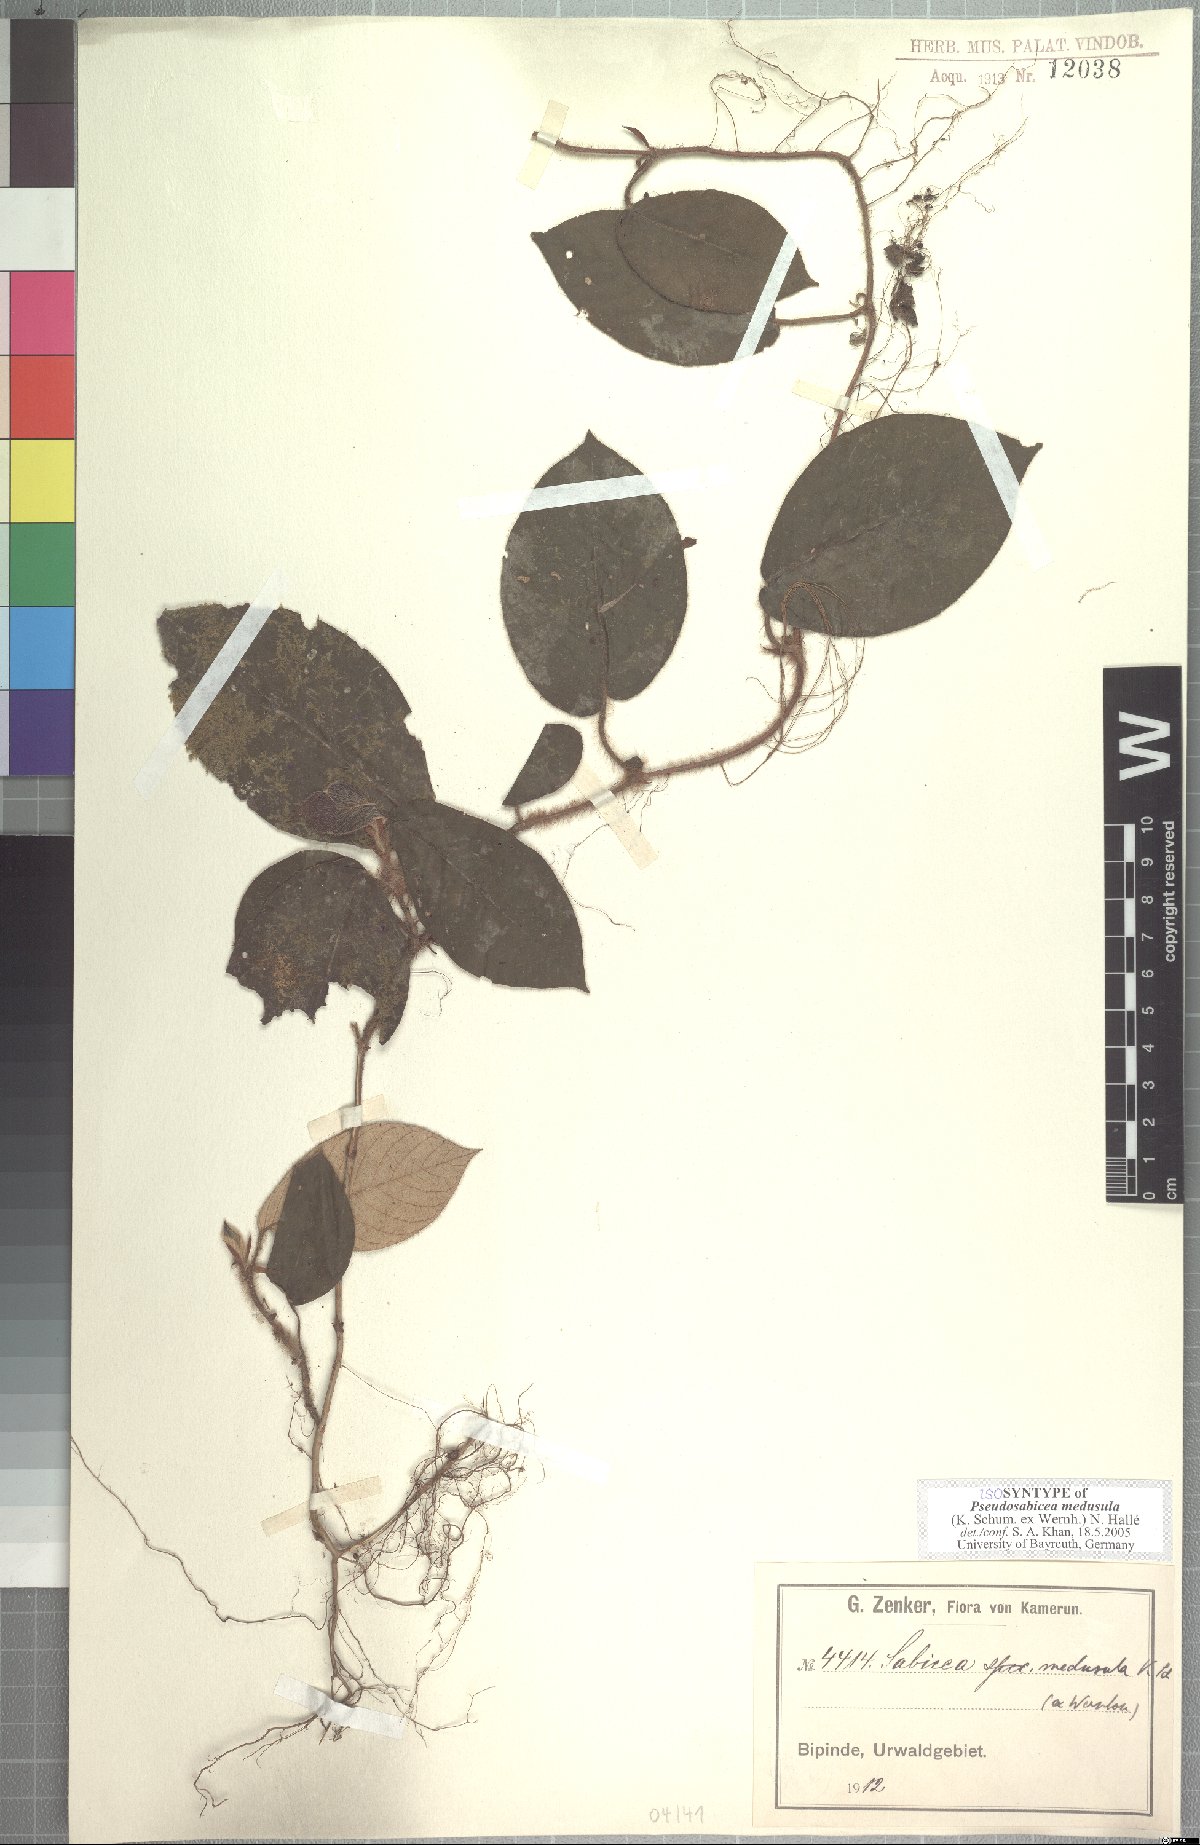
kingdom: Plantae
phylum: Tracheophyta
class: Magnoliopsida
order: Gentianales
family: Rubiaceae
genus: Sabicea
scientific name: Sabicea medusula
